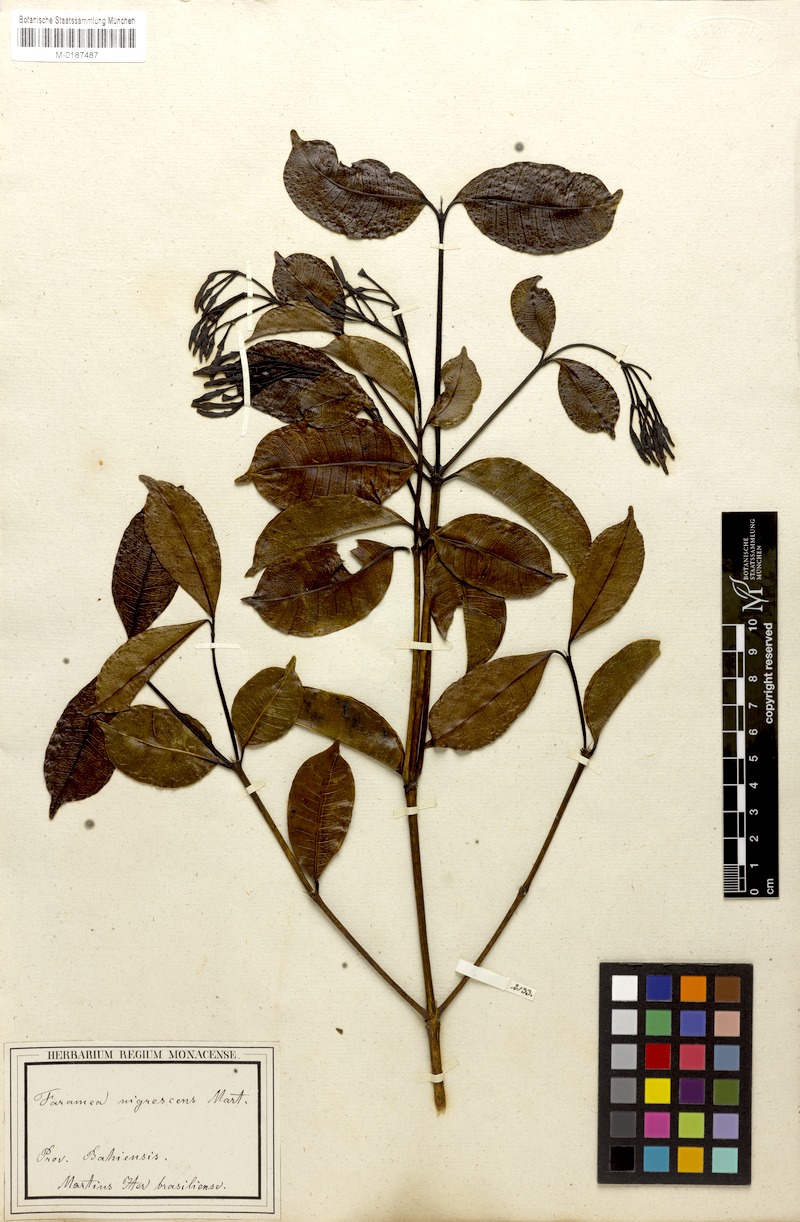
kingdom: Plantae
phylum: Tracheophyta
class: Magnoliopsida
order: Gentianales
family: Rubiaceae
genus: Faramea
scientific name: Faramea nigrescens
